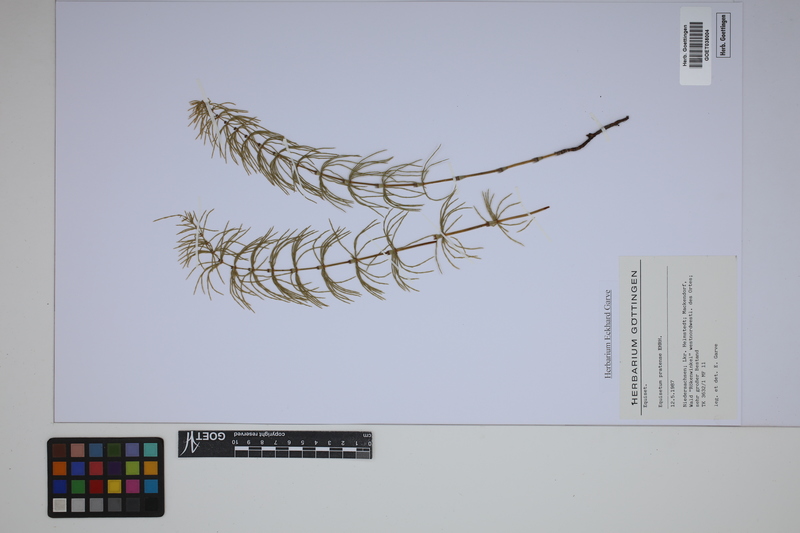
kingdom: Plantae
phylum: Tracheophyta
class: Polypodiopsida
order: Equisetales
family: Equisetaceae
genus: Equisetum
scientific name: Equisetum pratense
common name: Meadow horsetail
